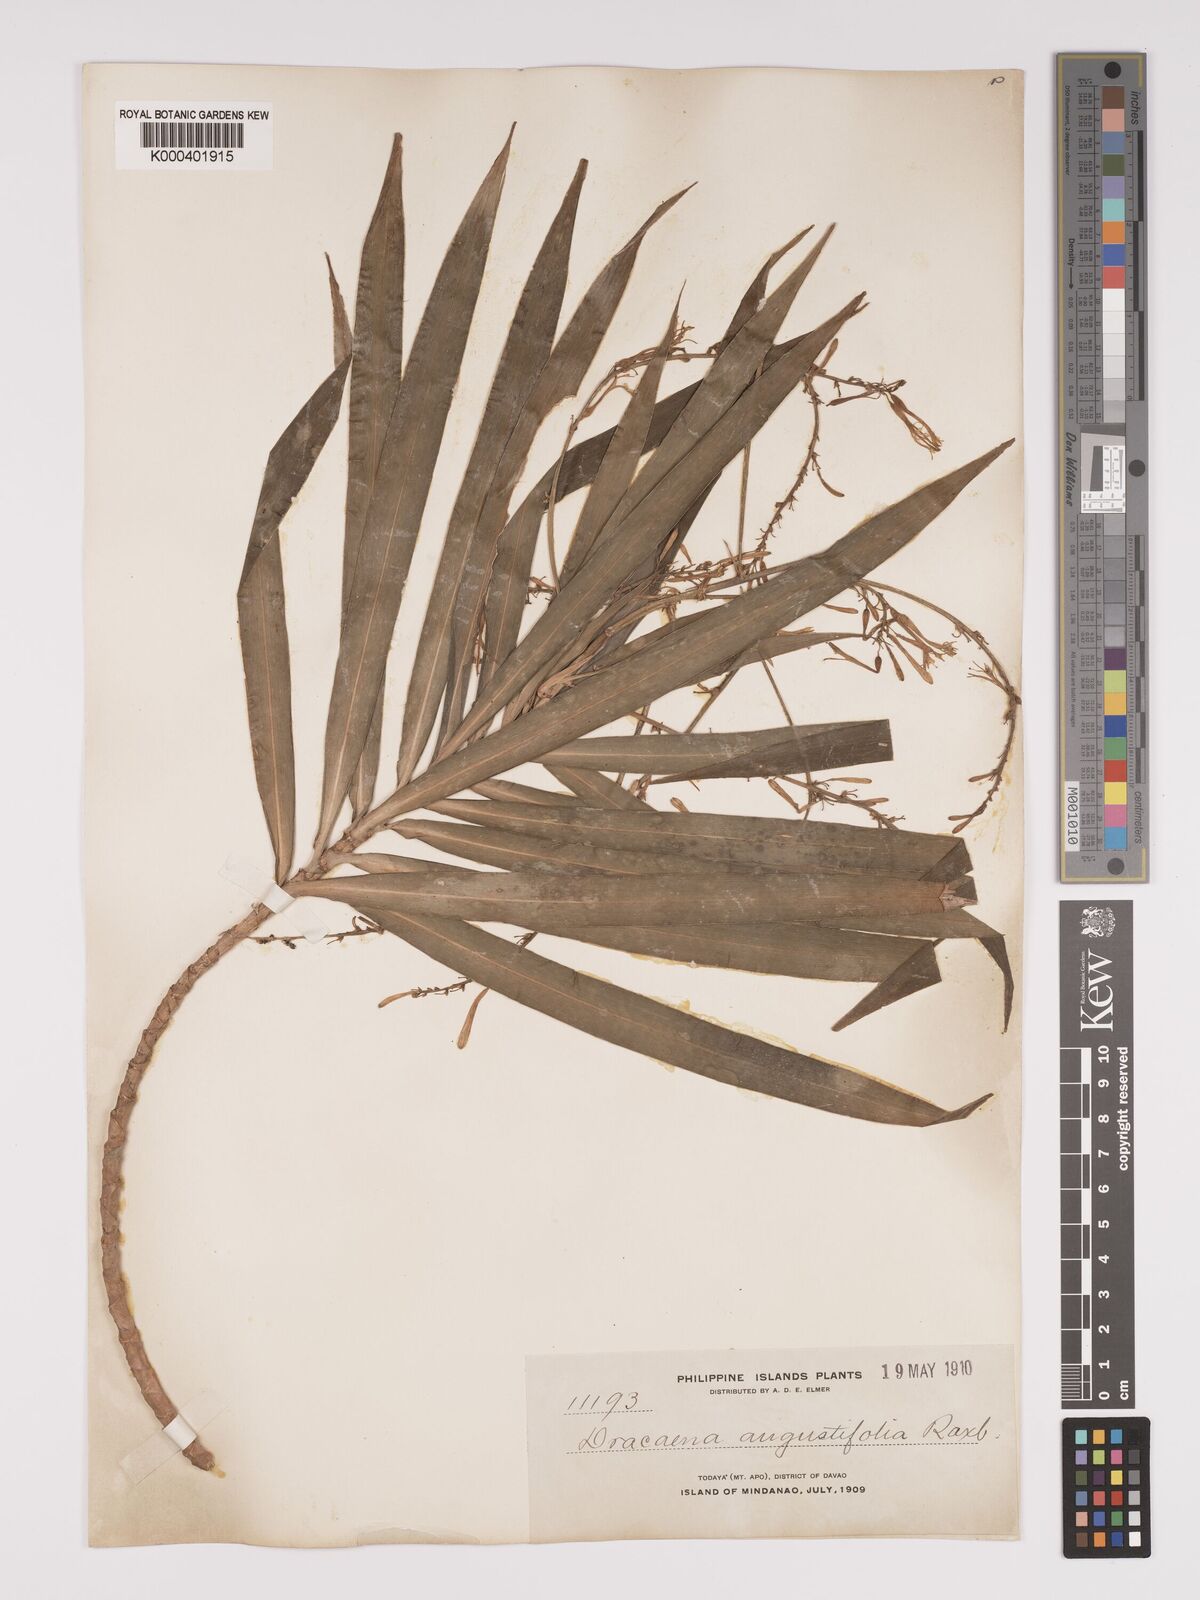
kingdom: Plantae
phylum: Tracheophyta
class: Liliopsida
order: Asparagales
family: Asparagaceae
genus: Dracaena
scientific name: Dracaena angustifolia
